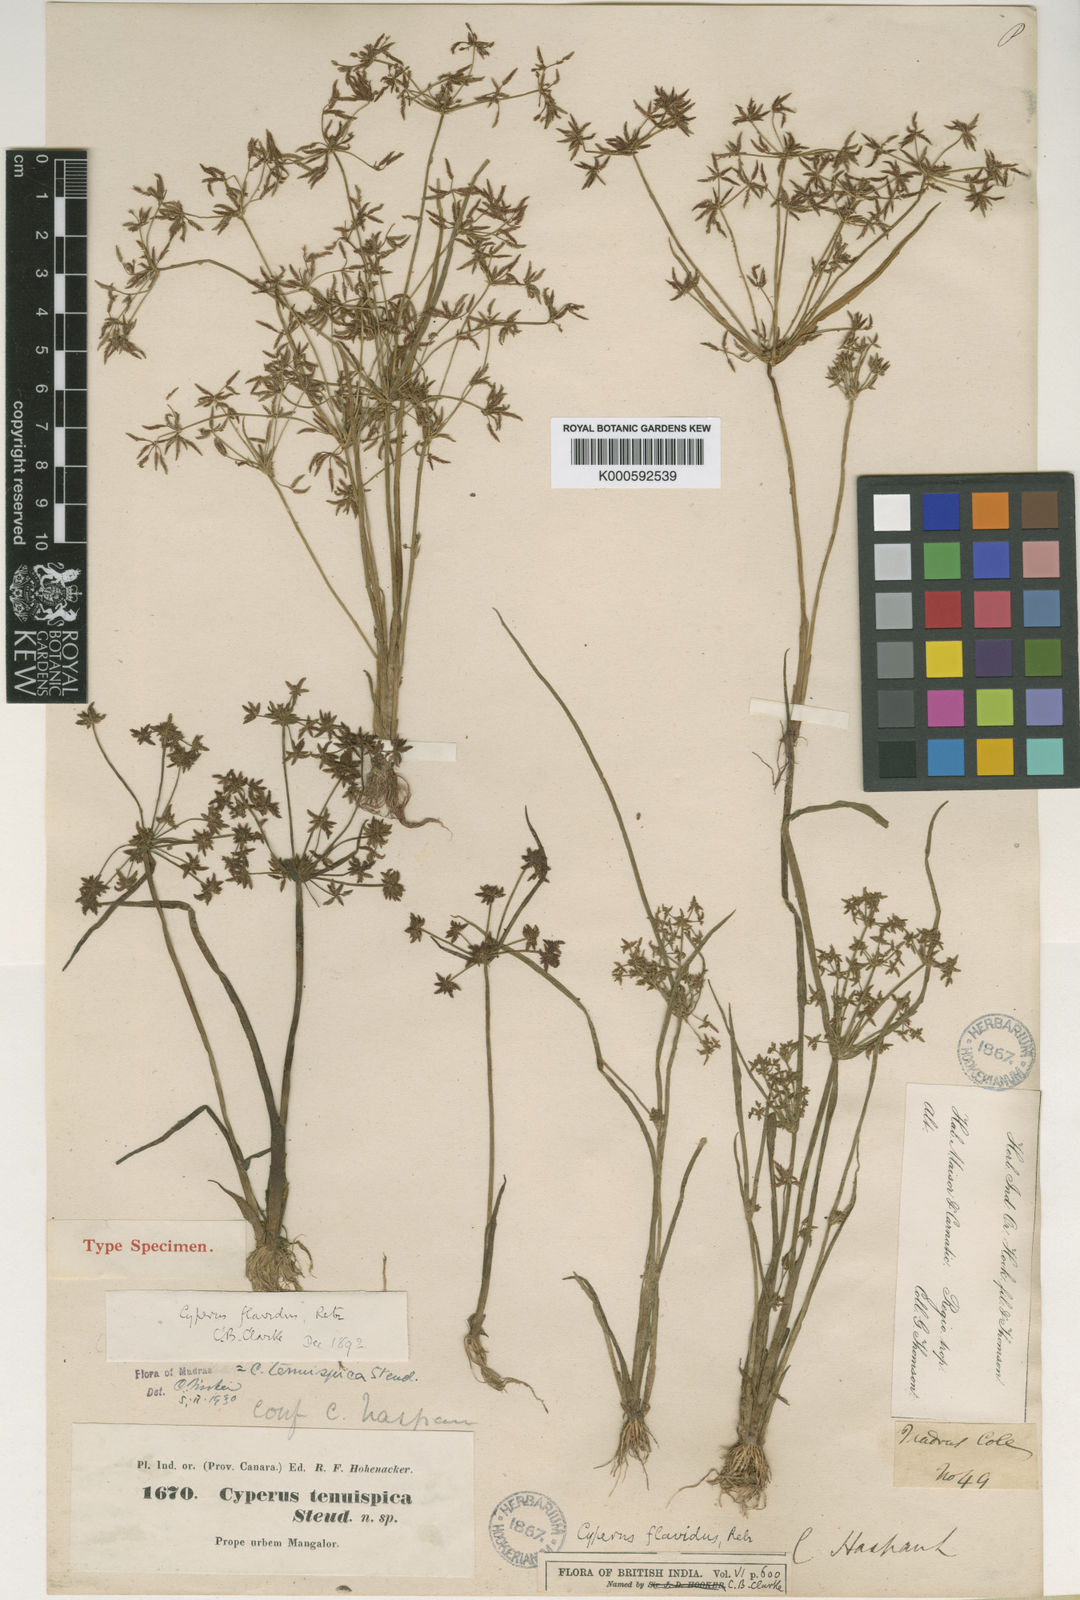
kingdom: Plantae
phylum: Tracheophyta
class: Liliopsida
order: Poales
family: Cyperaceae
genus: Cyperus
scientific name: Cyperus tenuispica
